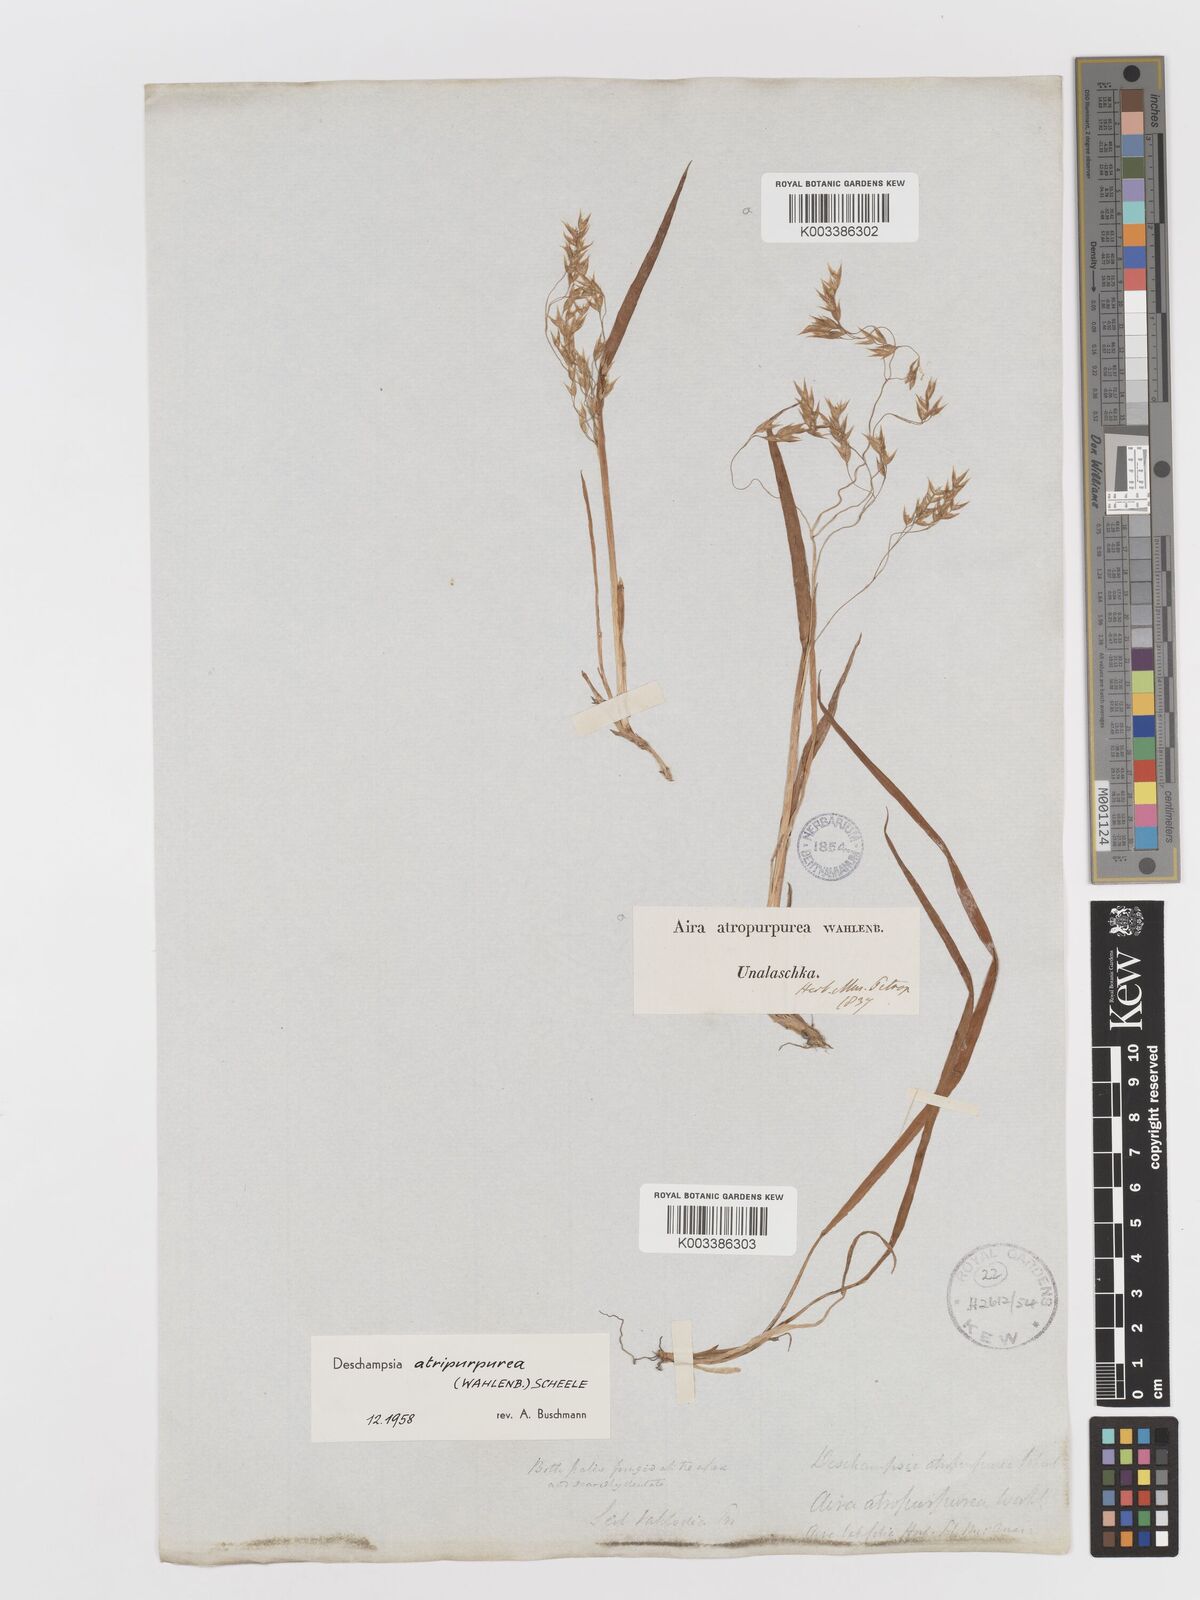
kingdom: Plantae
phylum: Tracheophyta
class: Liliopsida
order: Poales
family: Poaceae
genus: Vahlodea
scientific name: Vahlodea atropurpurea
